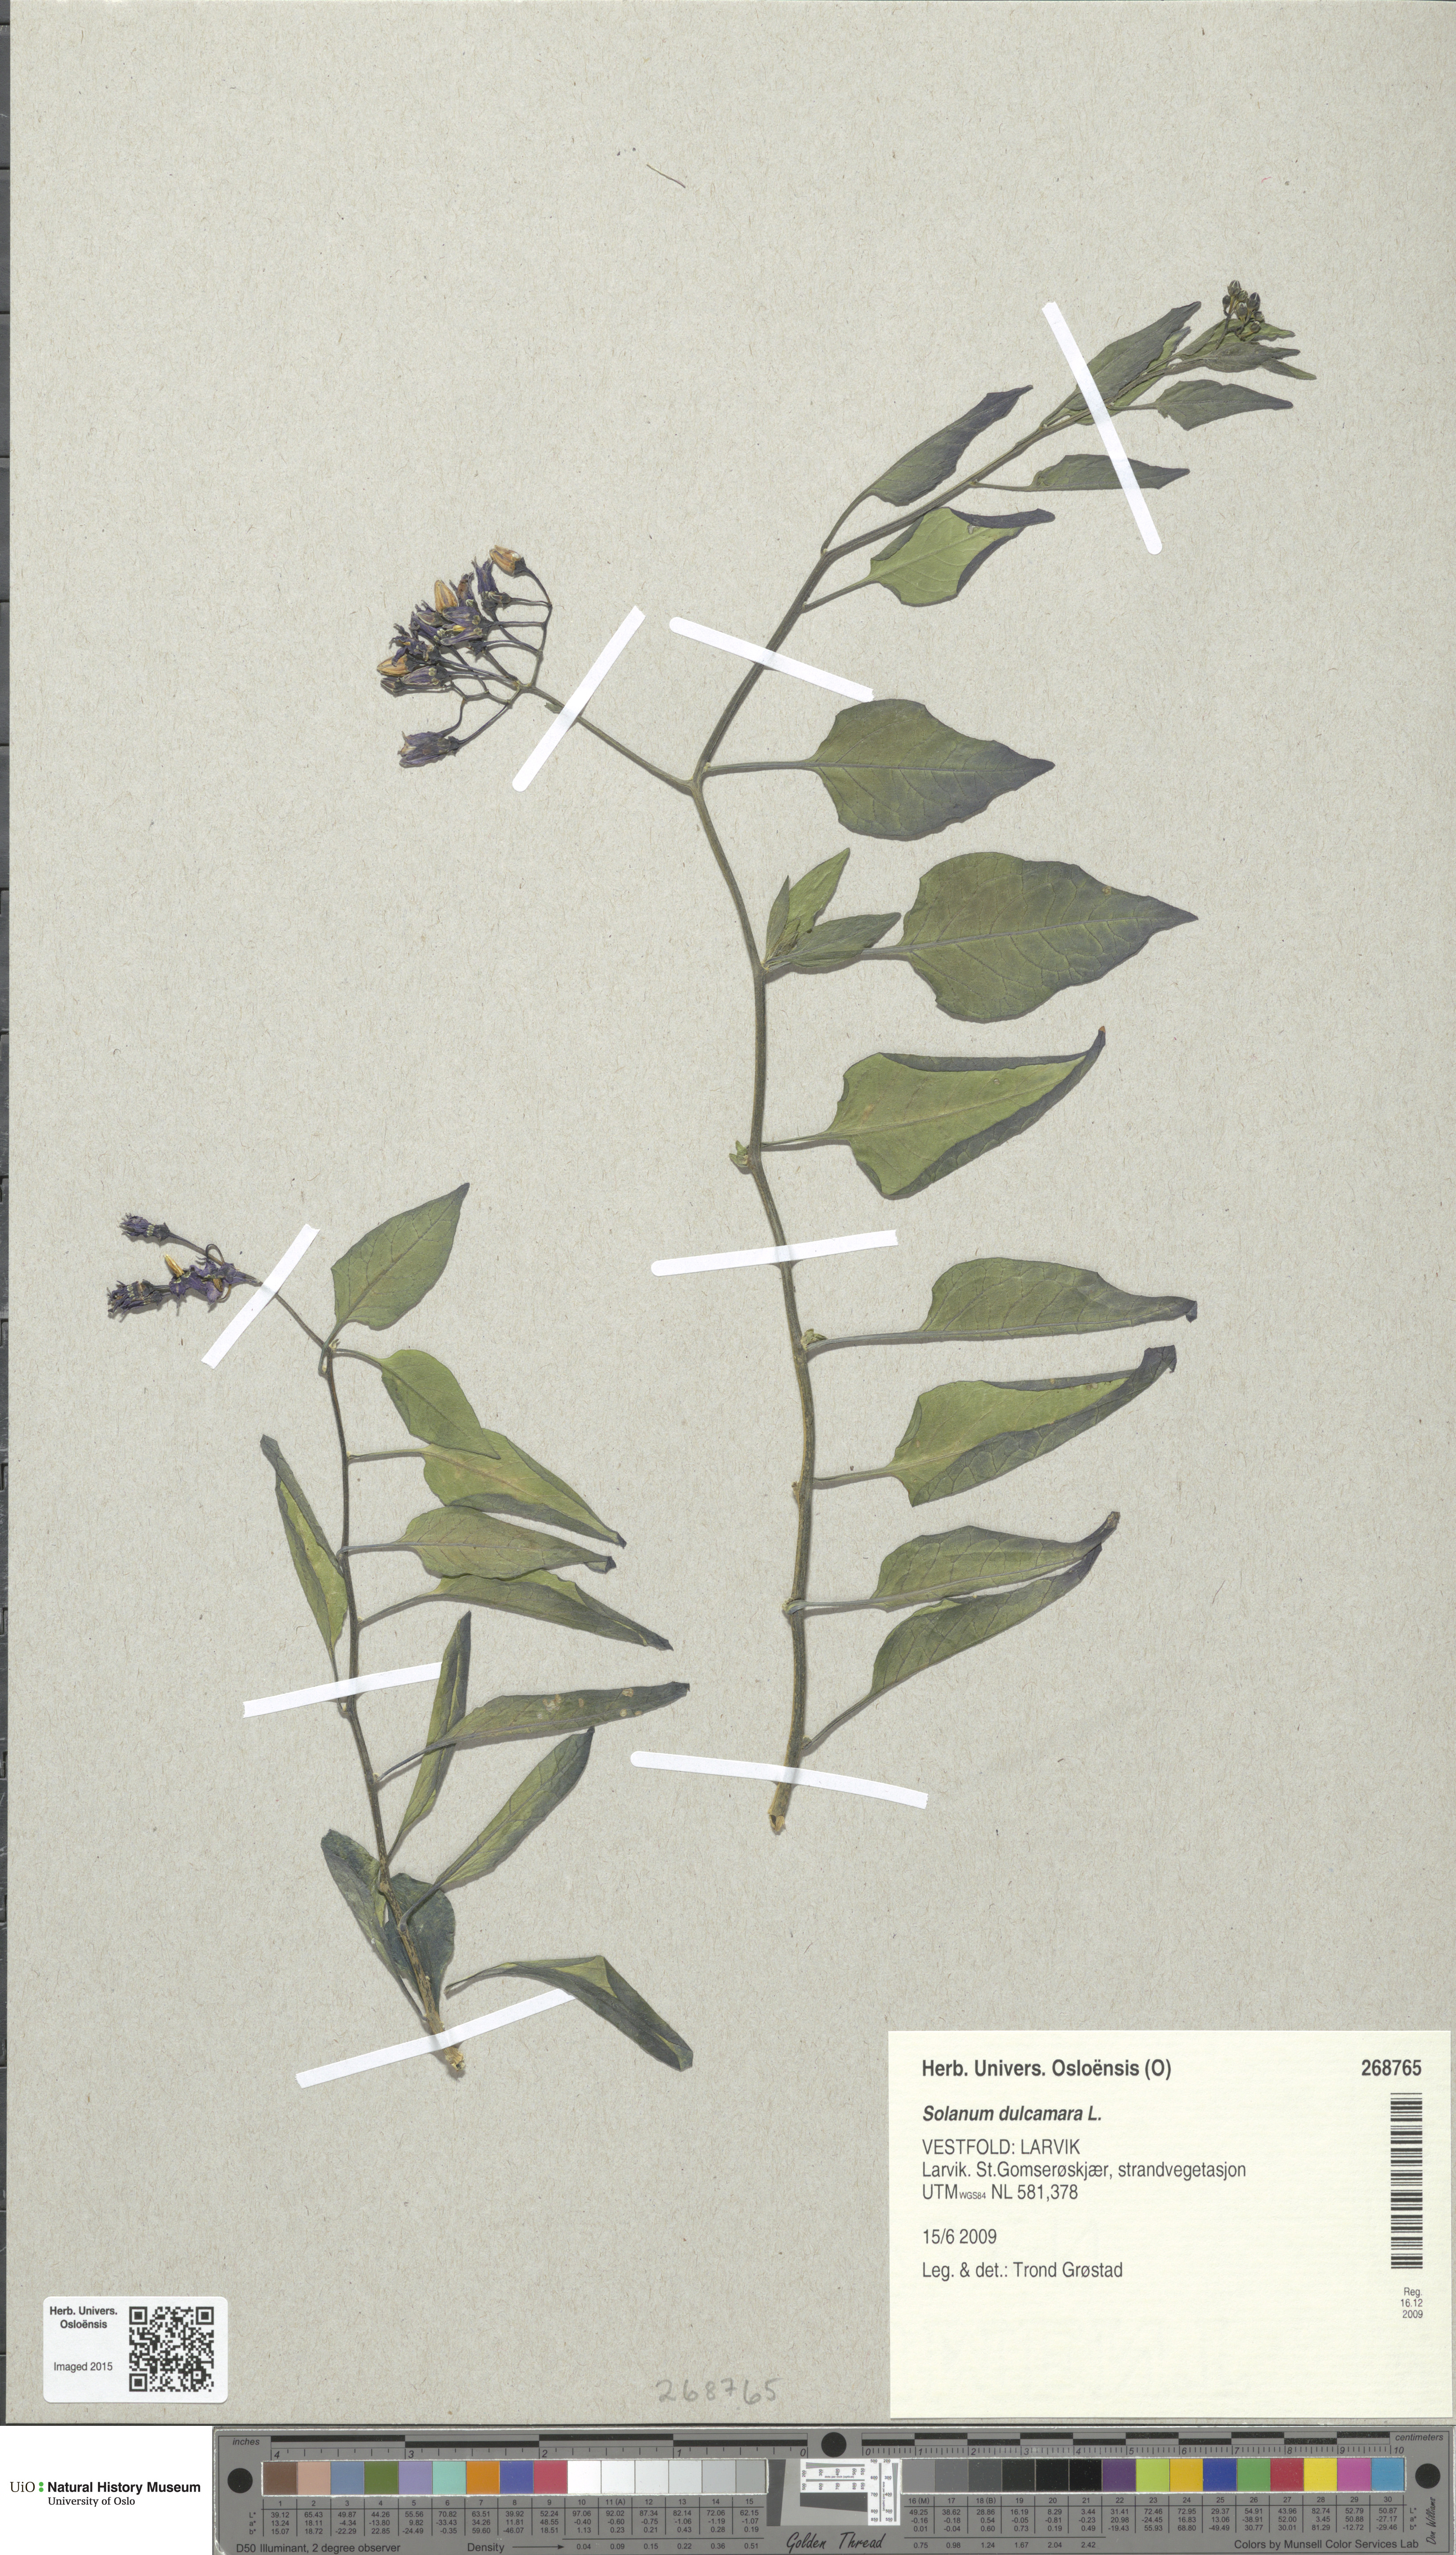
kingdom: Plantae
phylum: Tracheophyta
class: Magnoliopsida
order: Solanales
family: Solanaceae
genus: Solanum
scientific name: Solanum dulcamara
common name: Climbing nightshade
